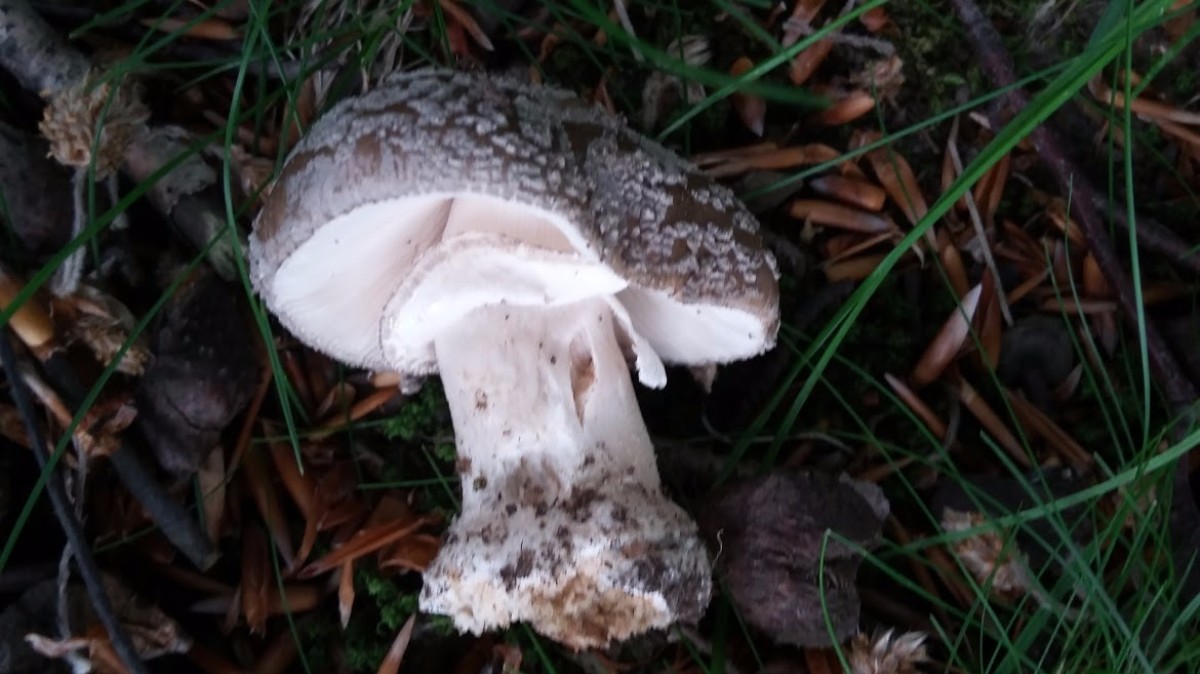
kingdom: Fungi
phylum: Basidiomycota
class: Agaricomycetes
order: Agaricales
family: Amanitaceae
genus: Amanita
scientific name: Amanita
